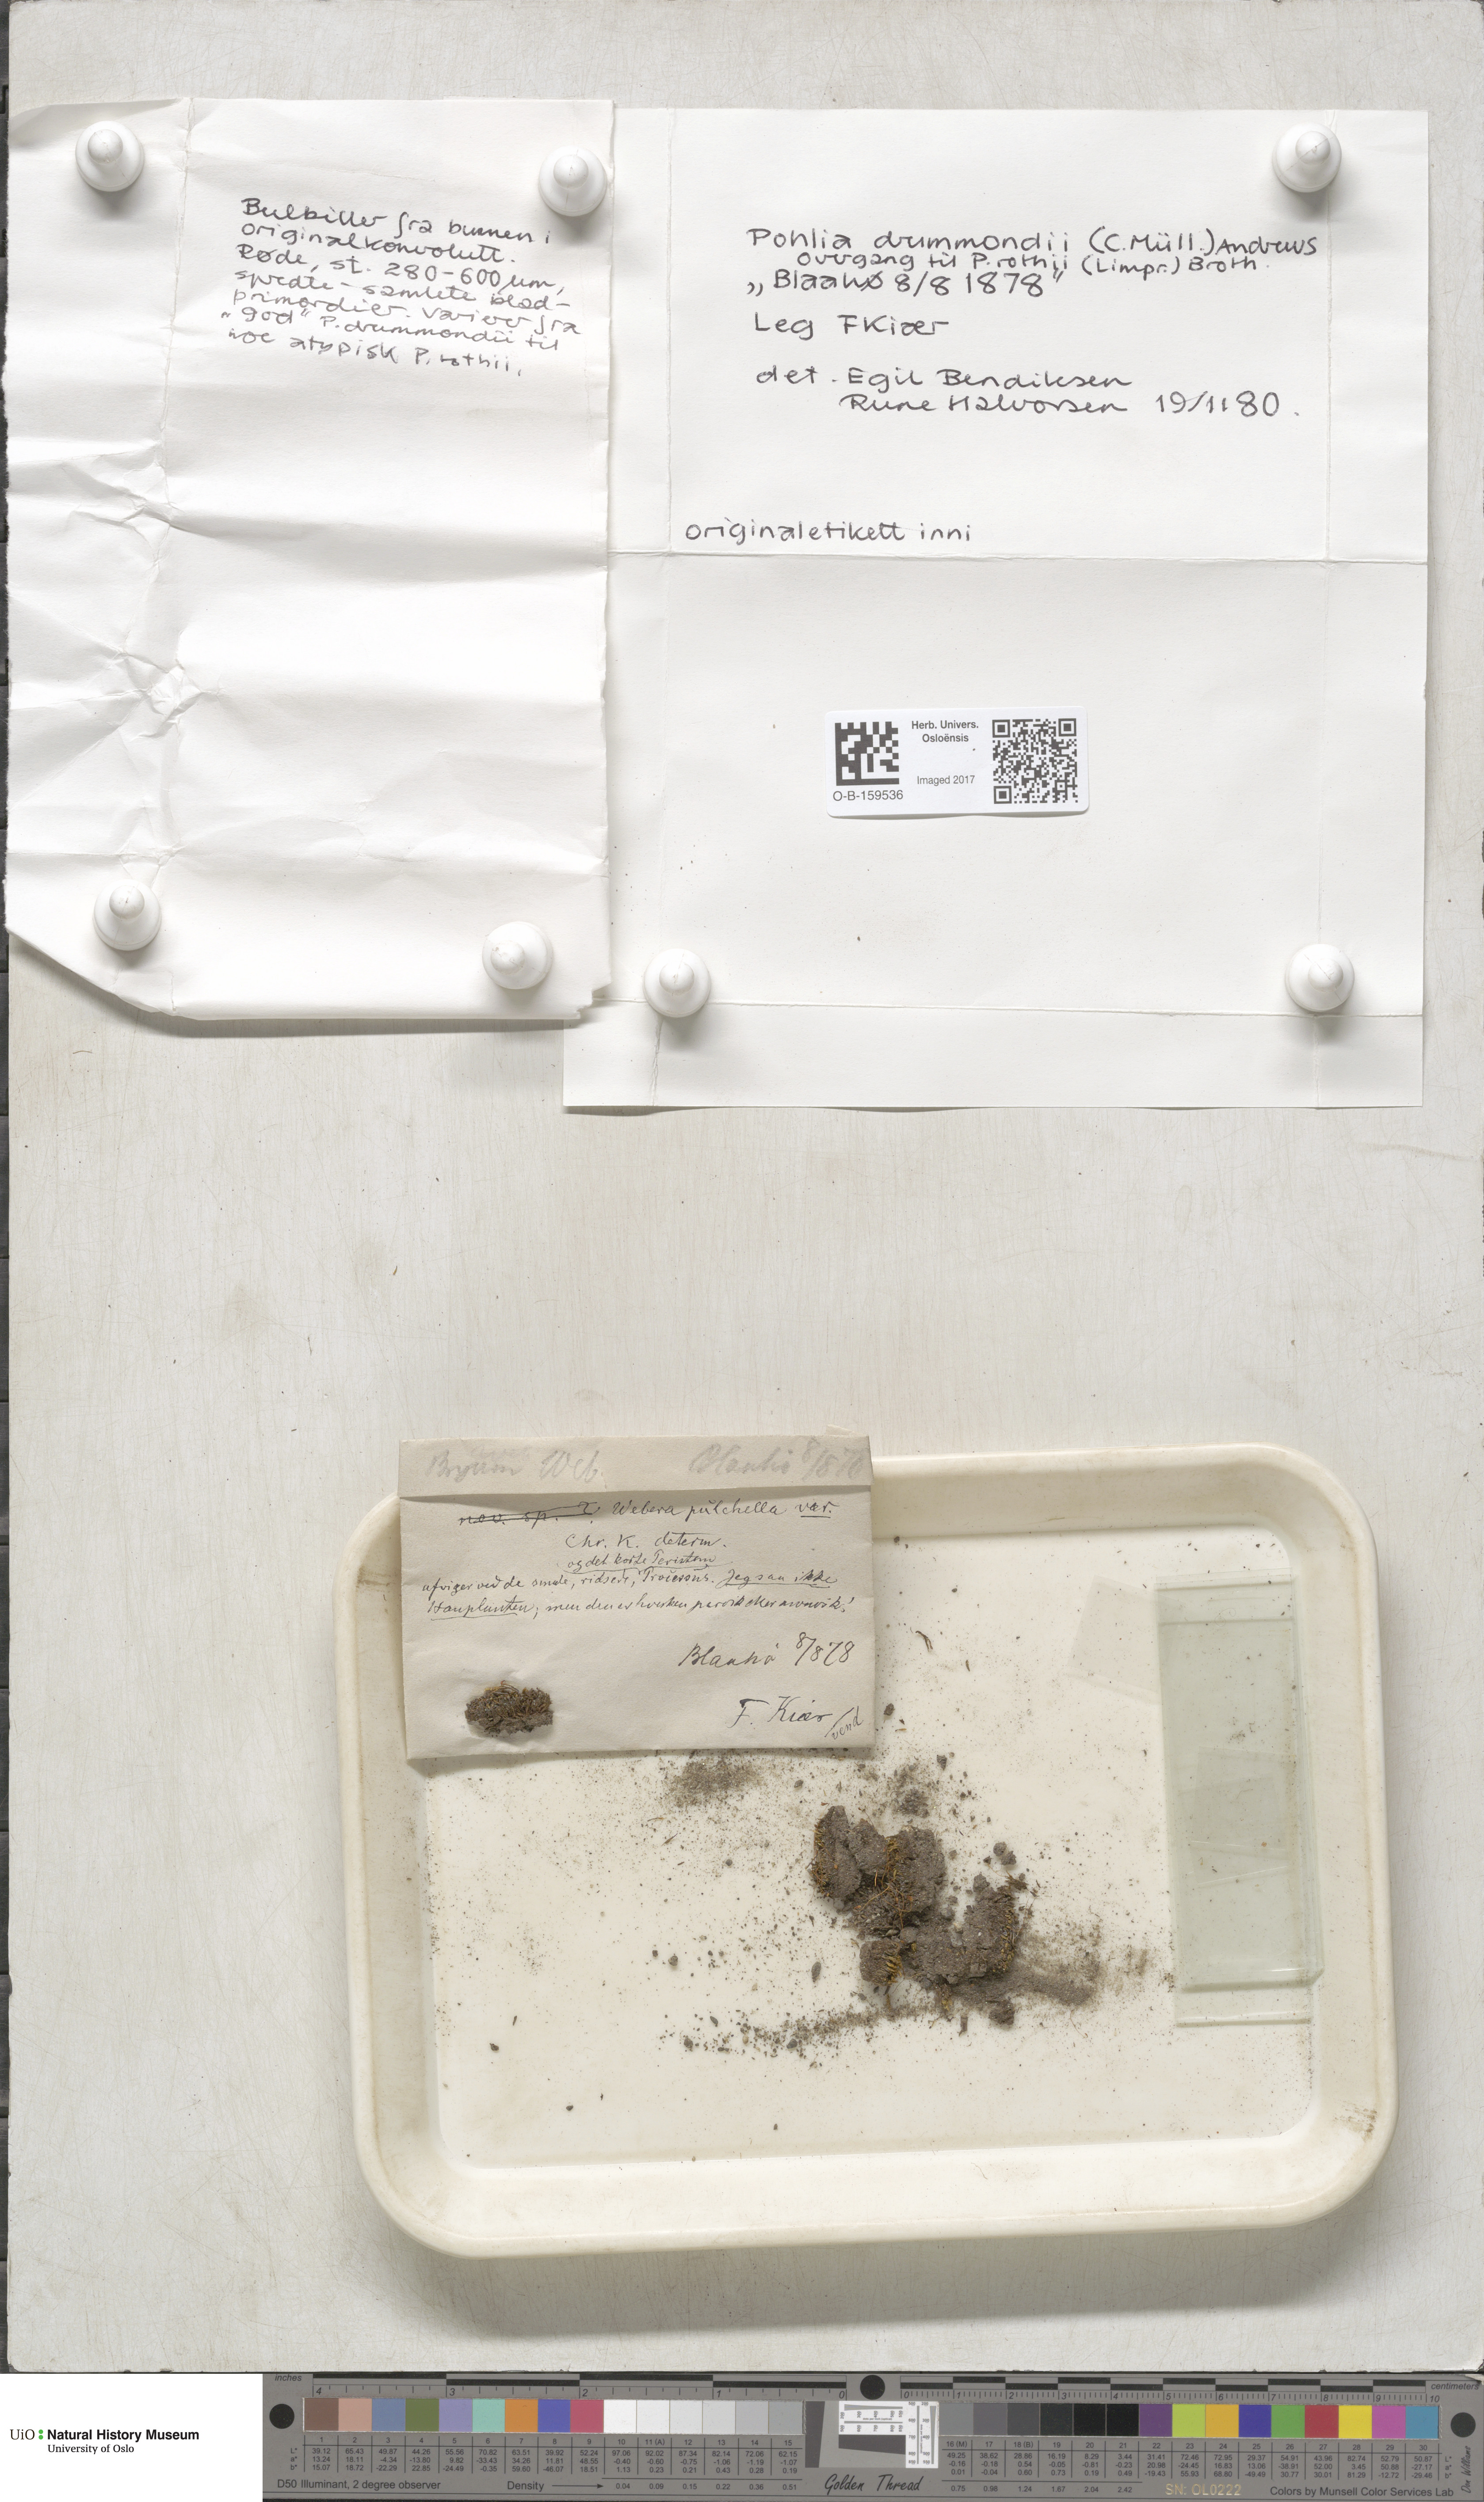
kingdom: Plantae
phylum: Bryophyta
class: Bryopsida
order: Bryales
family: Mniaceae
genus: Pohlia
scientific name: Pohlia drummondii
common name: Drummond's nodding moss
